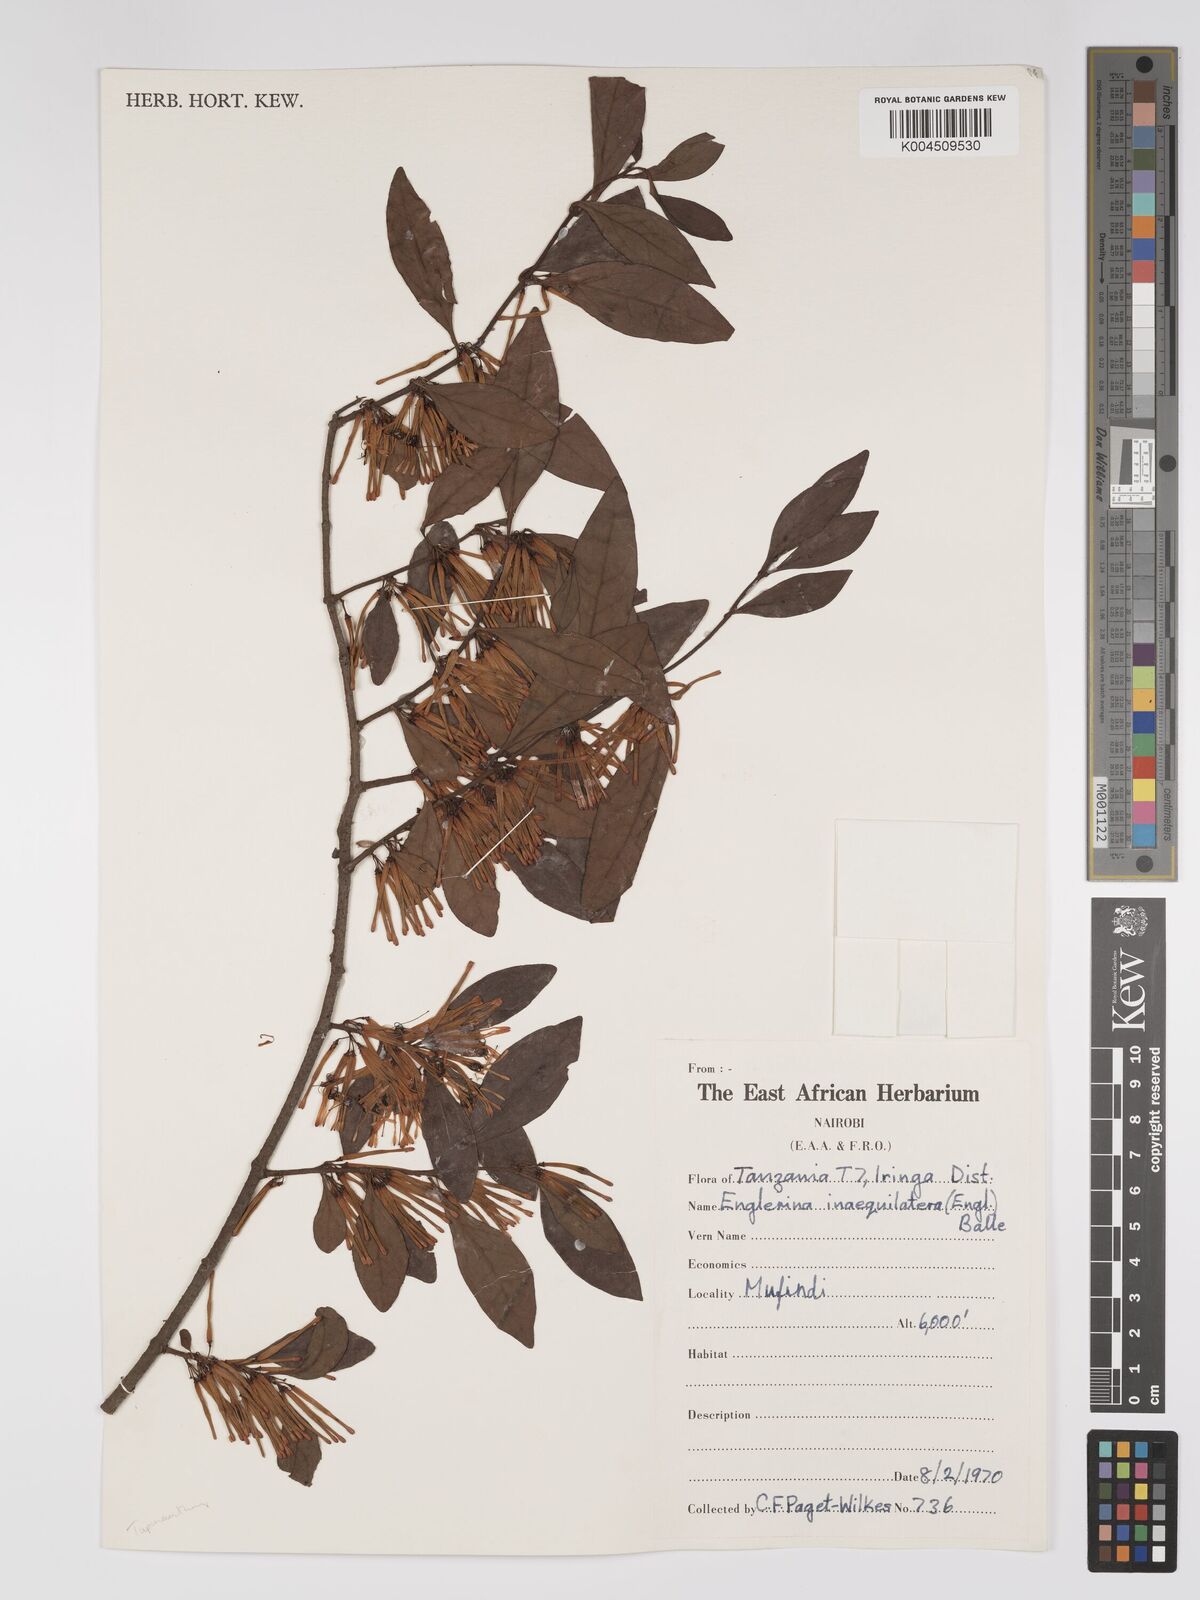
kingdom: Plantae
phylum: Tracheophyta
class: Magnoliopsida
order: Santalales
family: Loranthaceae
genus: Englerina
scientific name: Englerina inaequilatera
